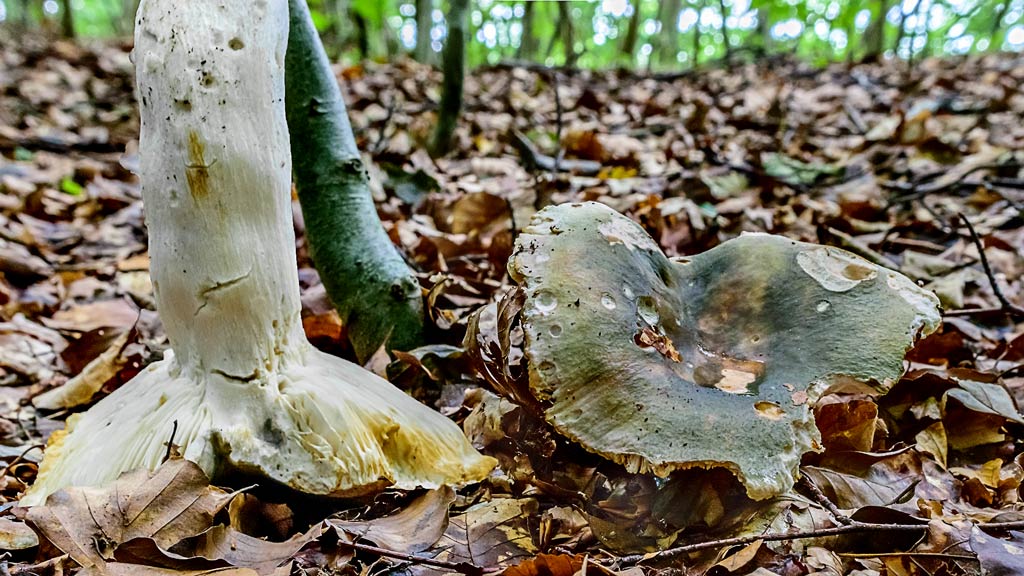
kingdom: Fungi
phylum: Basidiomycota
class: Agaricomycetes
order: Russulales
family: Russulaceae
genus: Russula
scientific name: Russula graveolens
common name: bugtet skørhat
